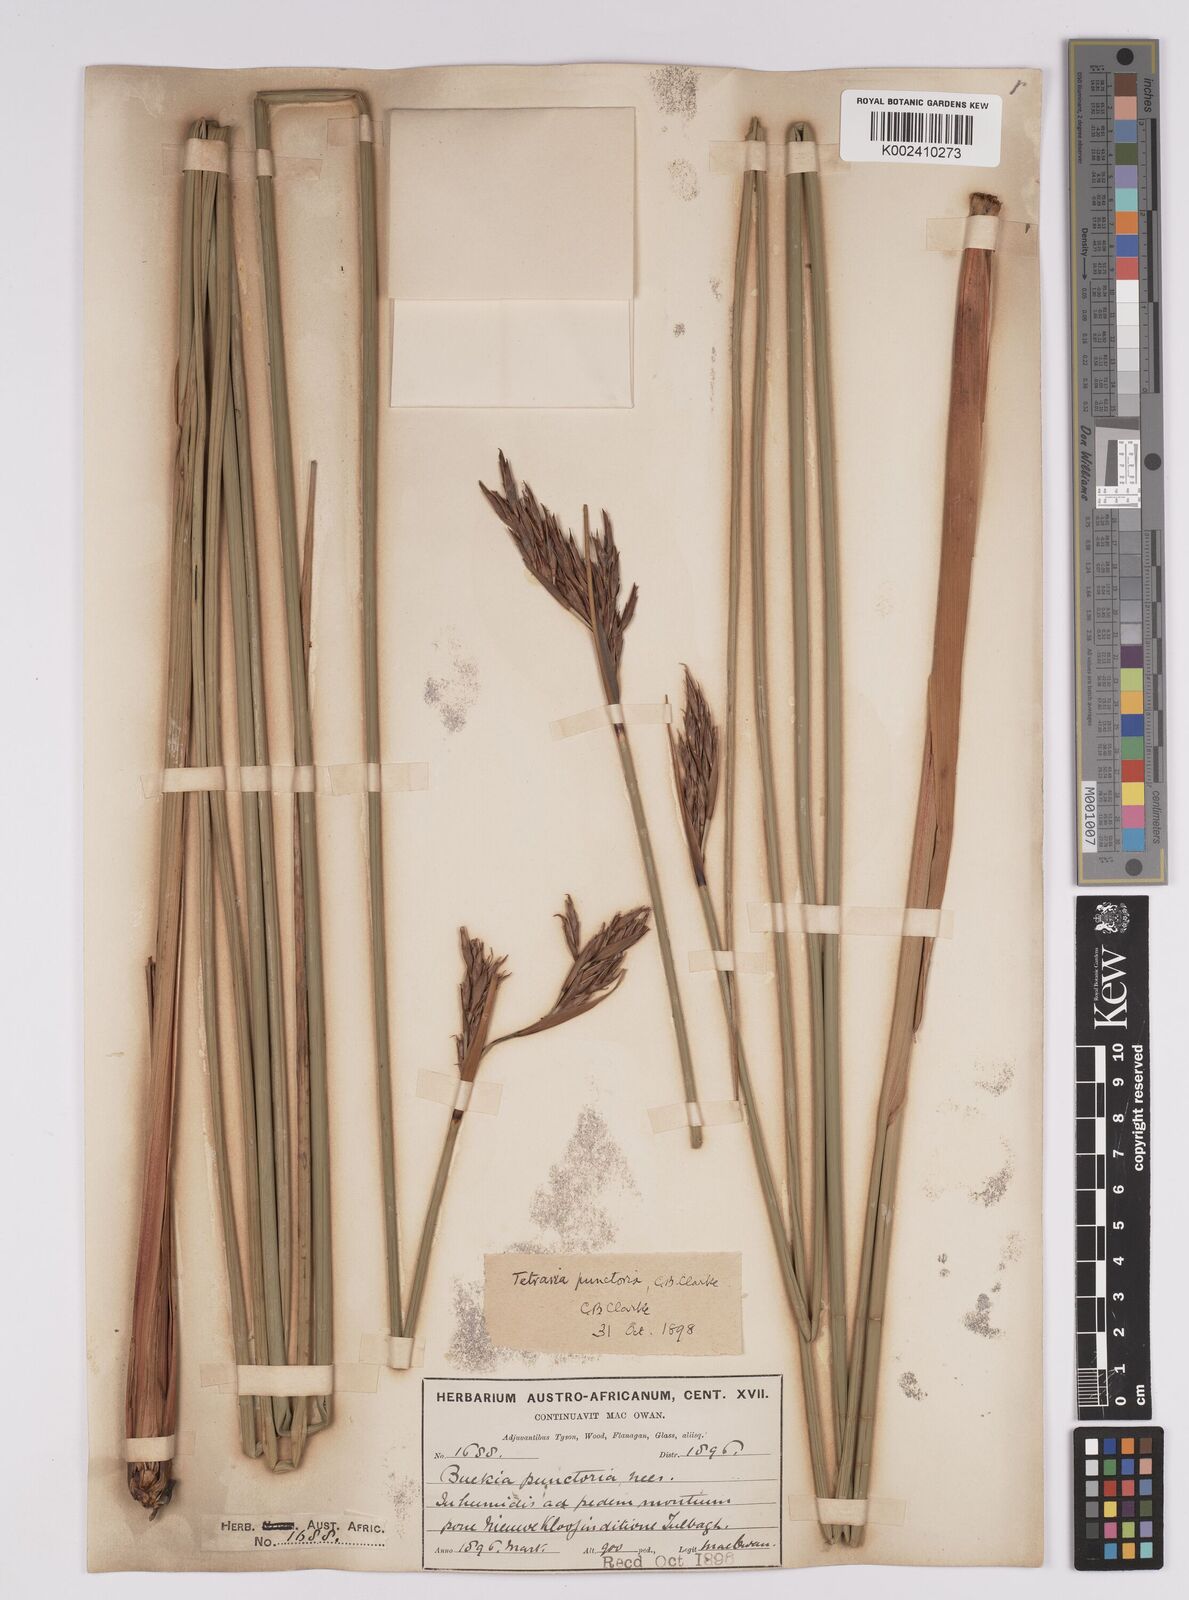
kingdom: Plantae
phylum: Tracheophyta
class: Liliopsida
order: Poales
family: Cyperaceae
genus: Neesenbeckia
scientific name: Neesenbeckia punctoria
